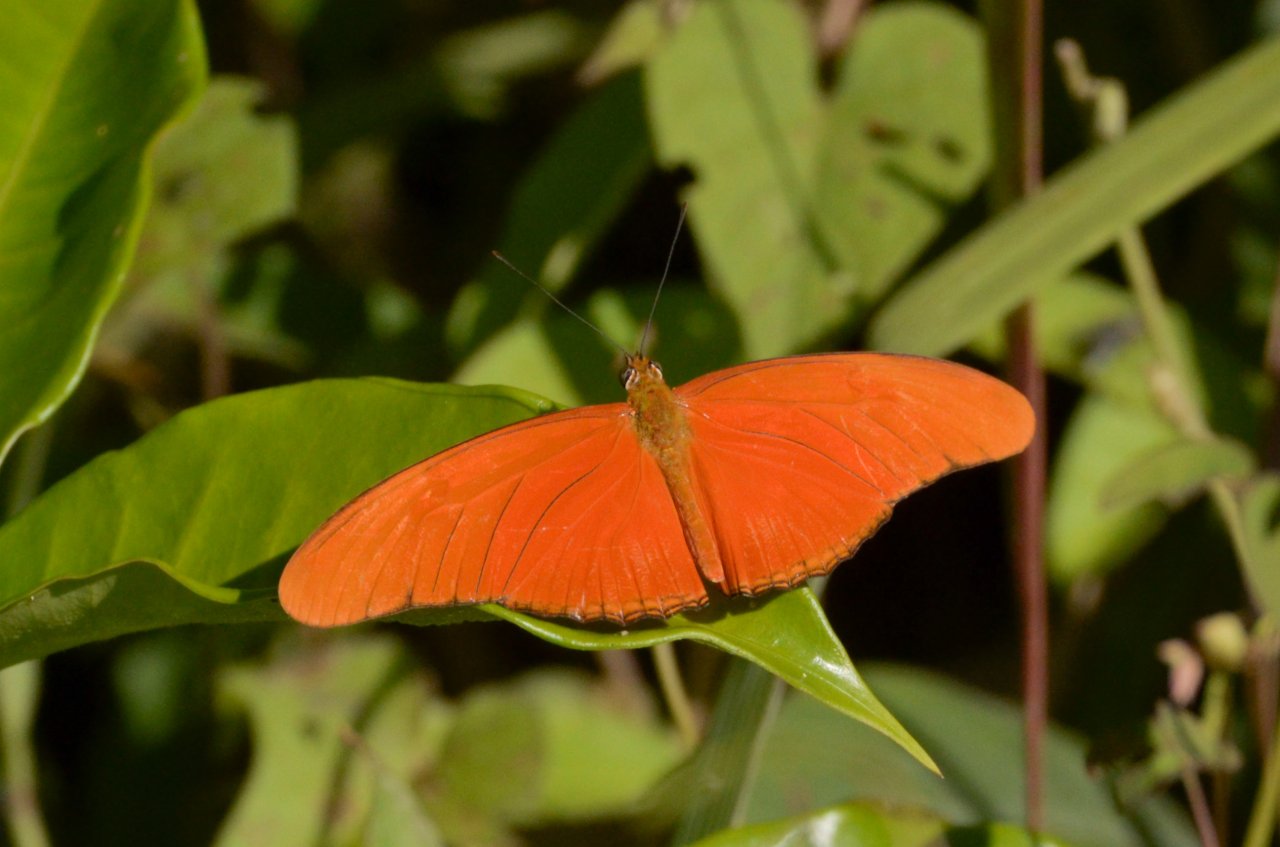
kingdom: Animalia
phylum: Arthropoda
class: Insecta
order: Lepidoptera
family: Nymphalidae
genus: Dryas
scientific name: Dryas iulia
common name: Julia
